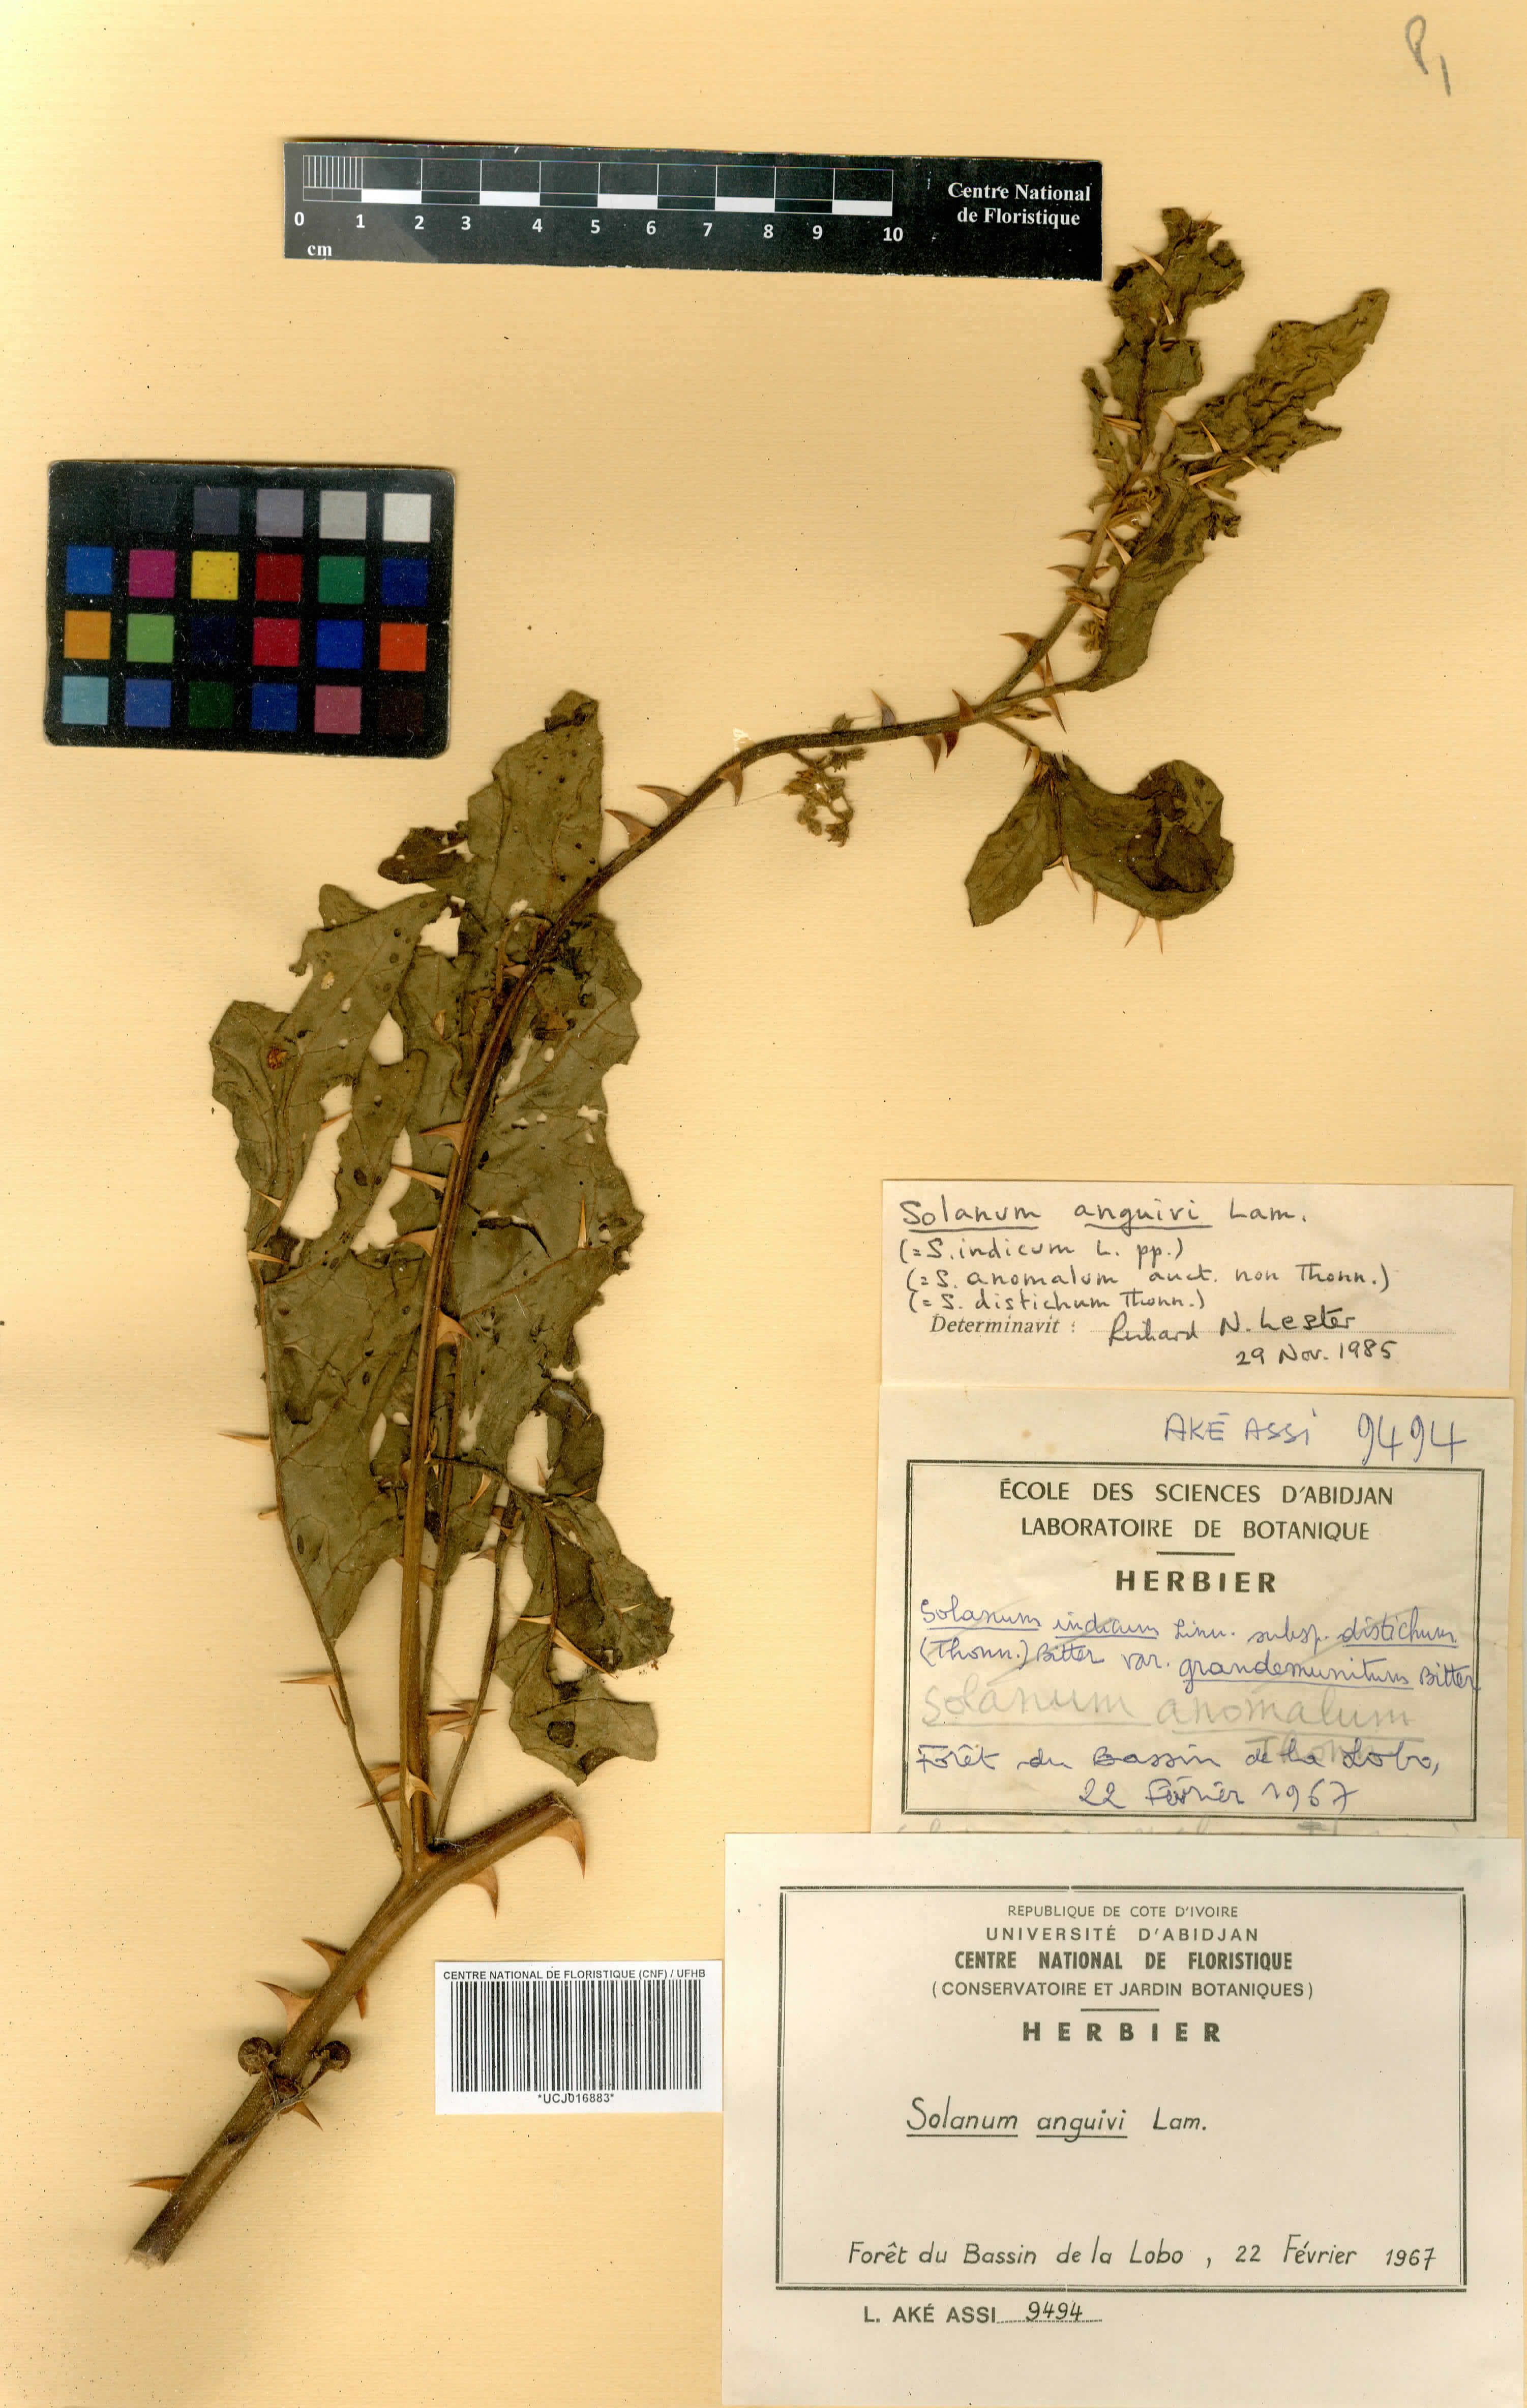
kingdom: Plantae
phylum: Tracheophyta
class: Magnoliopsida
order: Solanales
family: Solanaceae
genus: Solanum
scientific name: Solanum americanum
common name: American black nightshade
